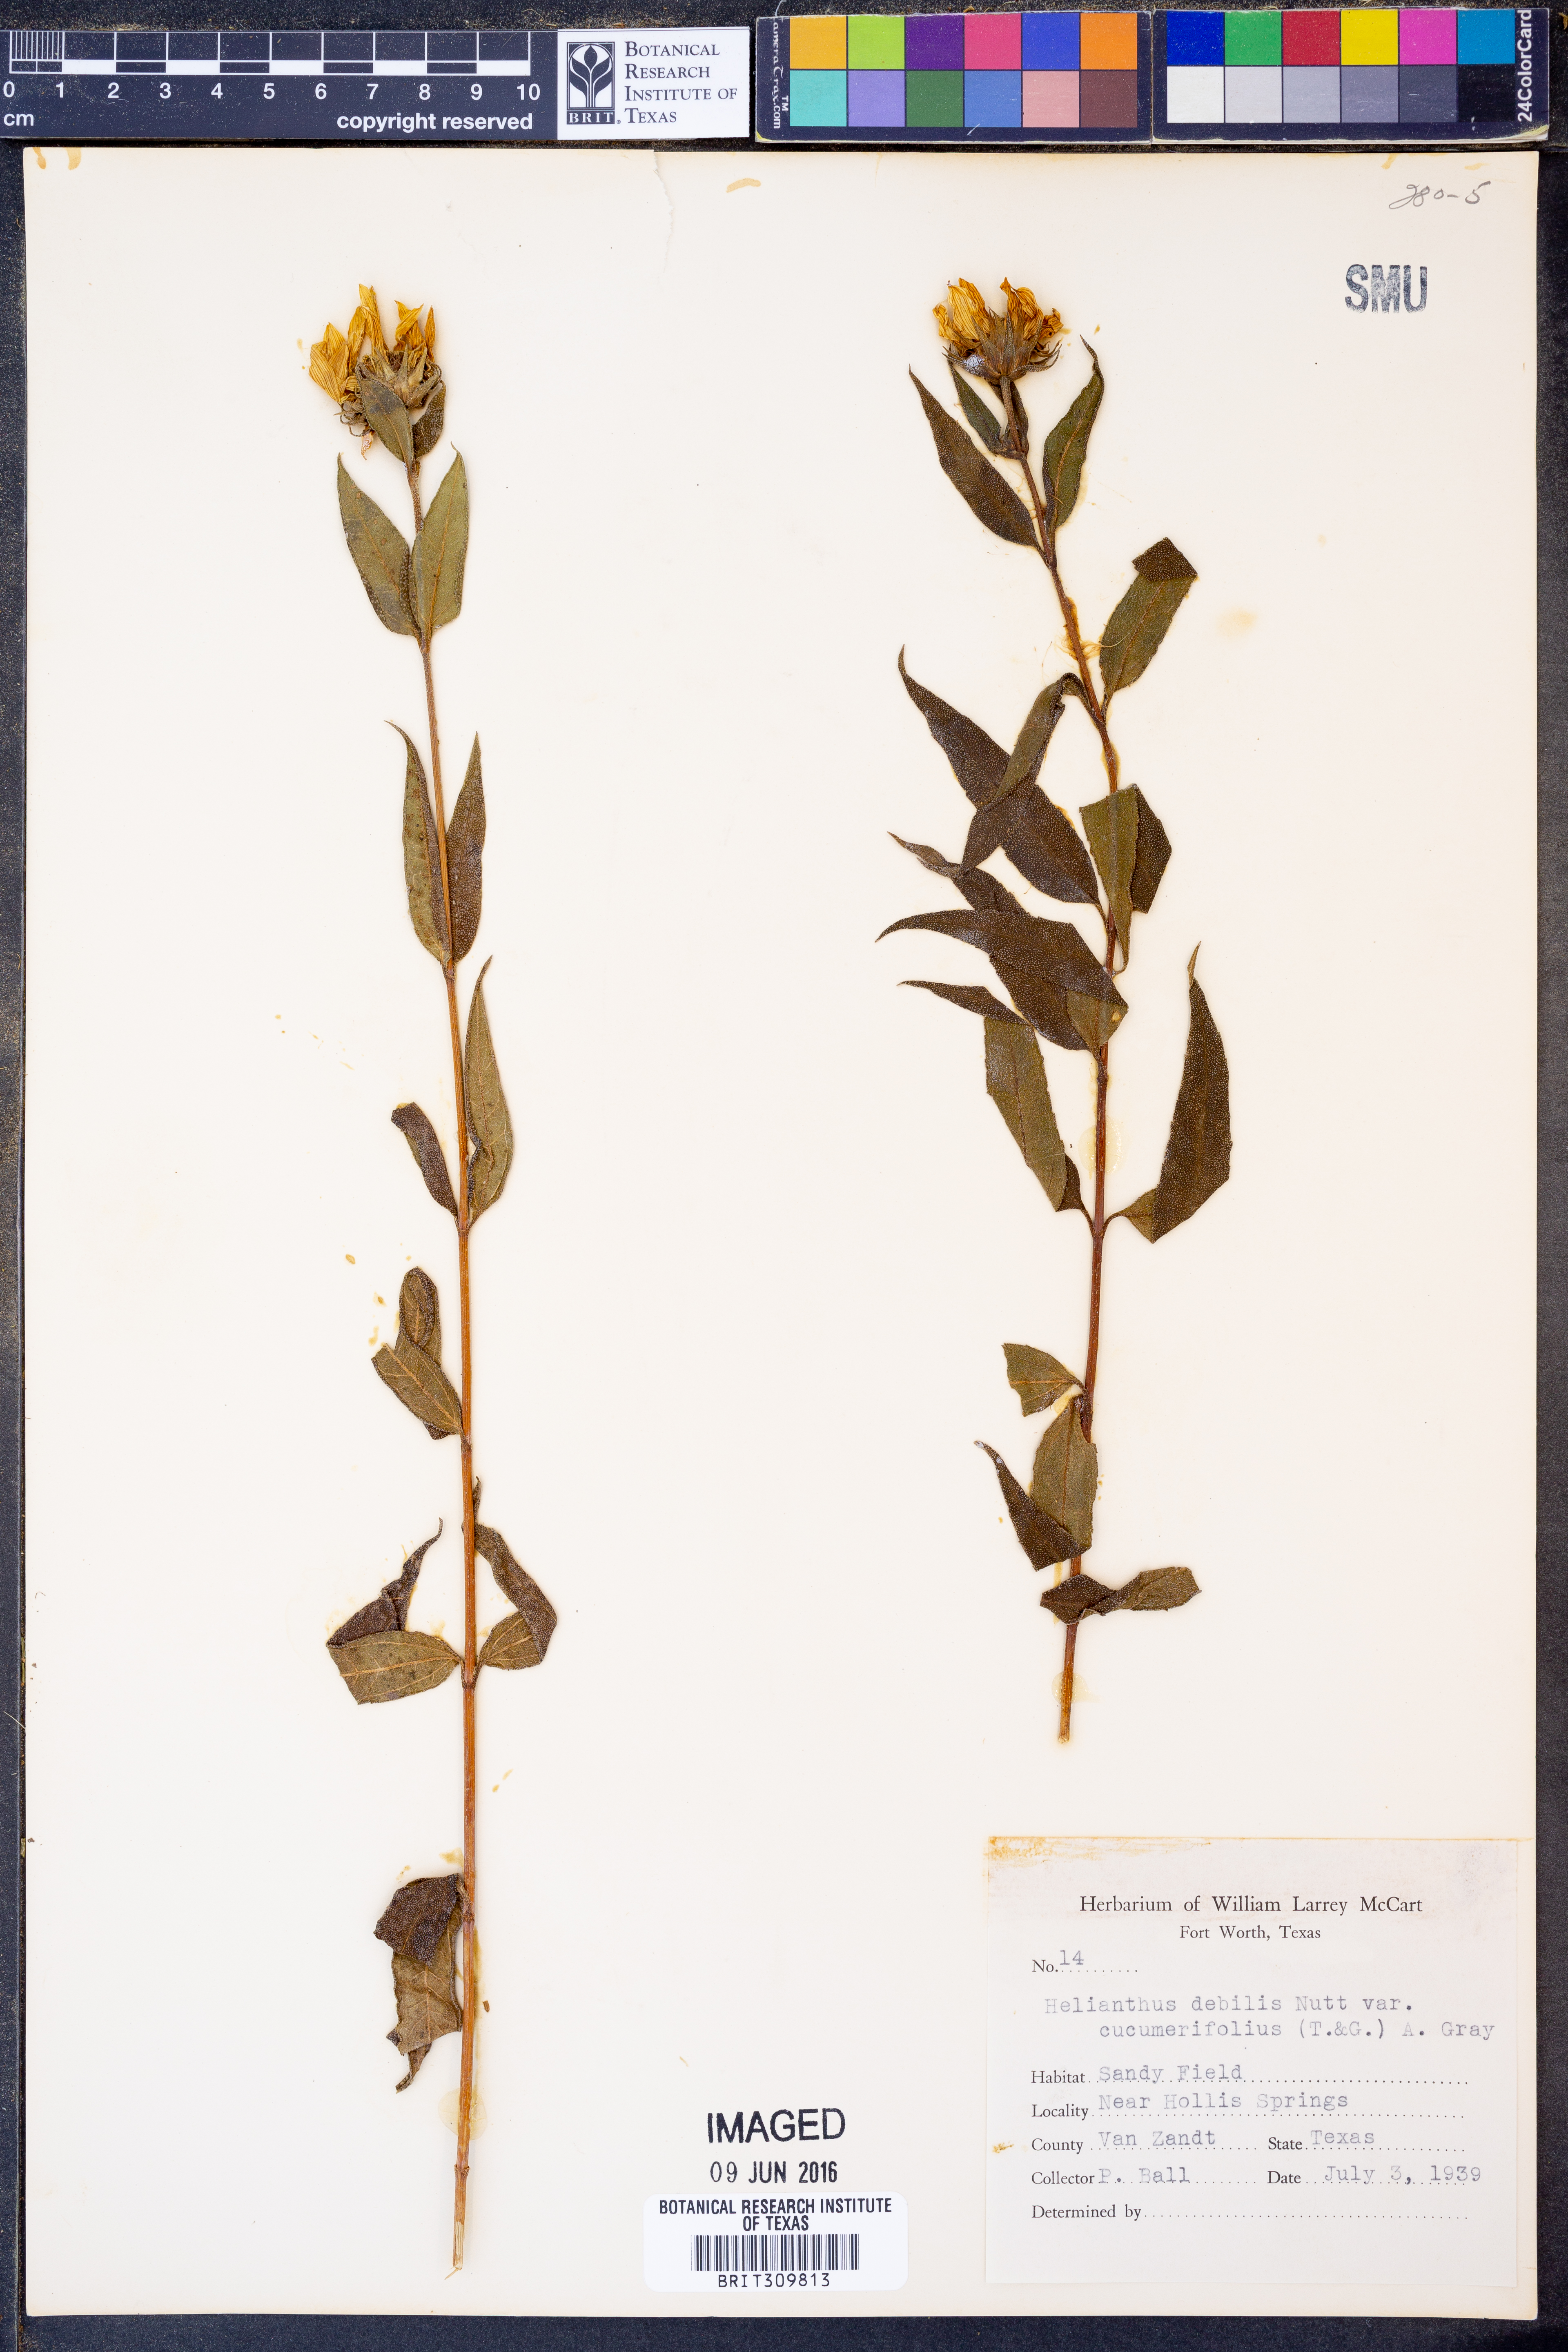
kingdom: Plantae
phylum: Tracheophyta
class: Magnoliopsida
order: Asterales
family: Asteraceae
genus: Helianthus
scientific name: Helianthus debilis
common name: Weak sunflower
